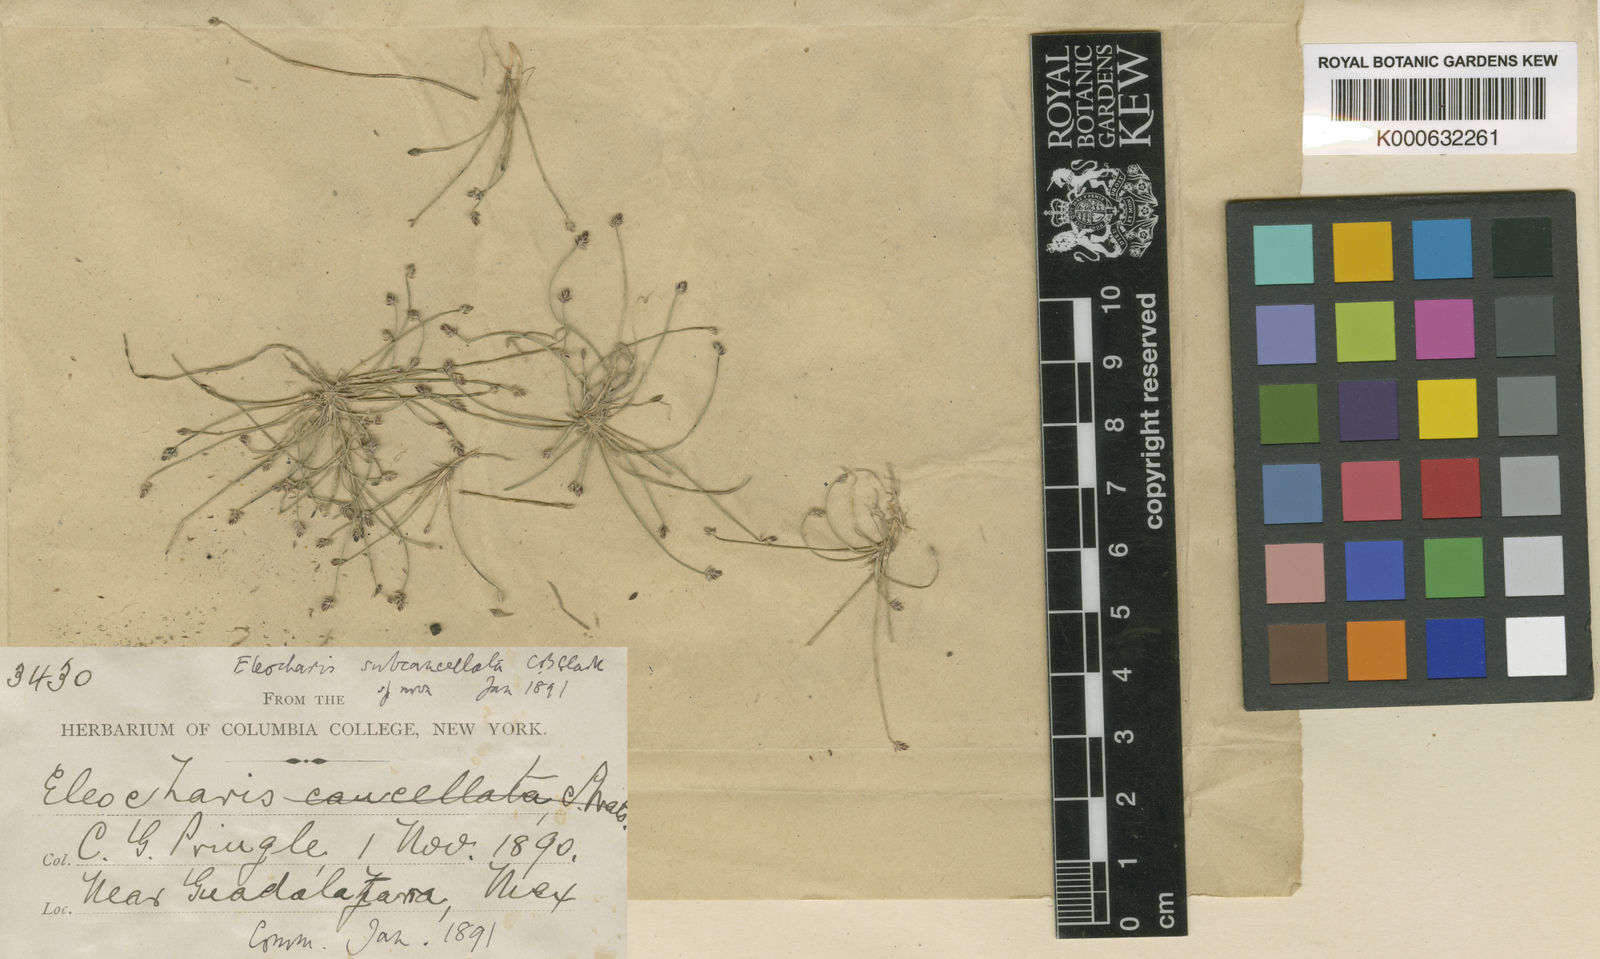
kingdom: Plantae
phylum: Tracheophyta
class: Liliopsida
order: Poales
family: Cyperaceae
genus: Eleocharis
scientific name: Eleocharis subcancellata
